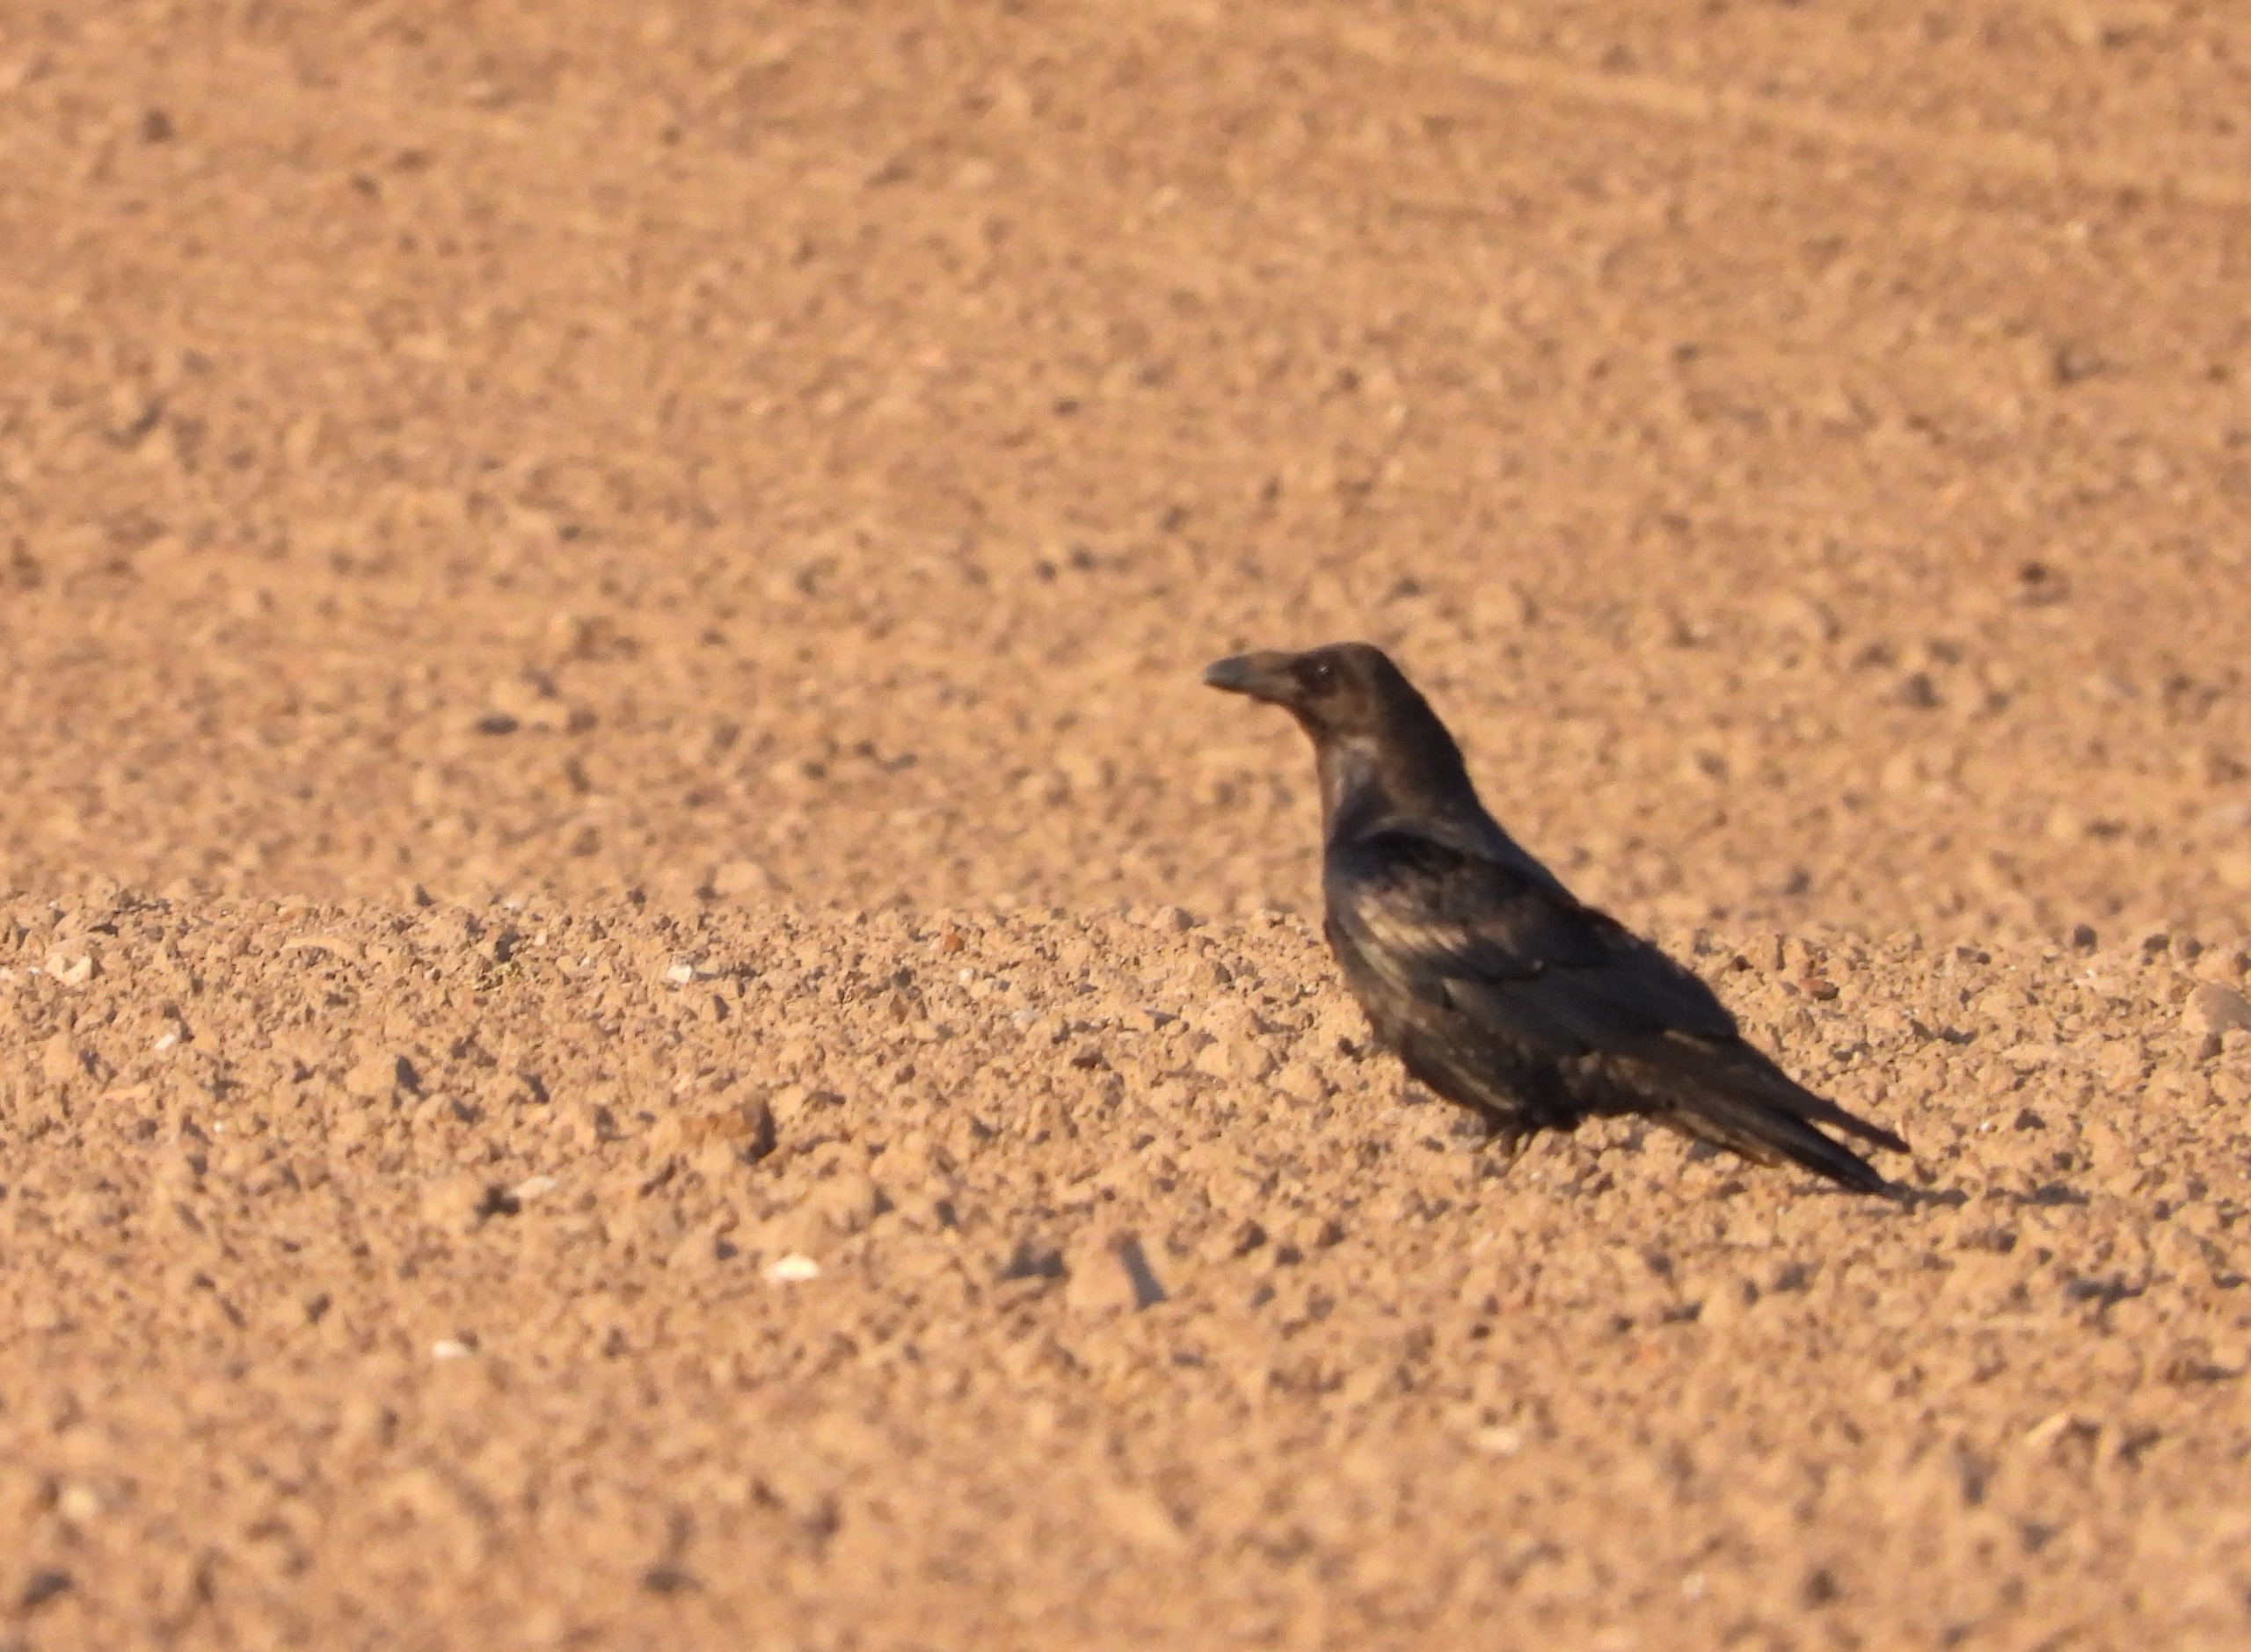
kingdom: Animalia
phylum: Chordata
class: Aves
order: Passeriformes
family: Corvidae
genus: Corvus
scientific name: Corvus corax
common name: Ravn
